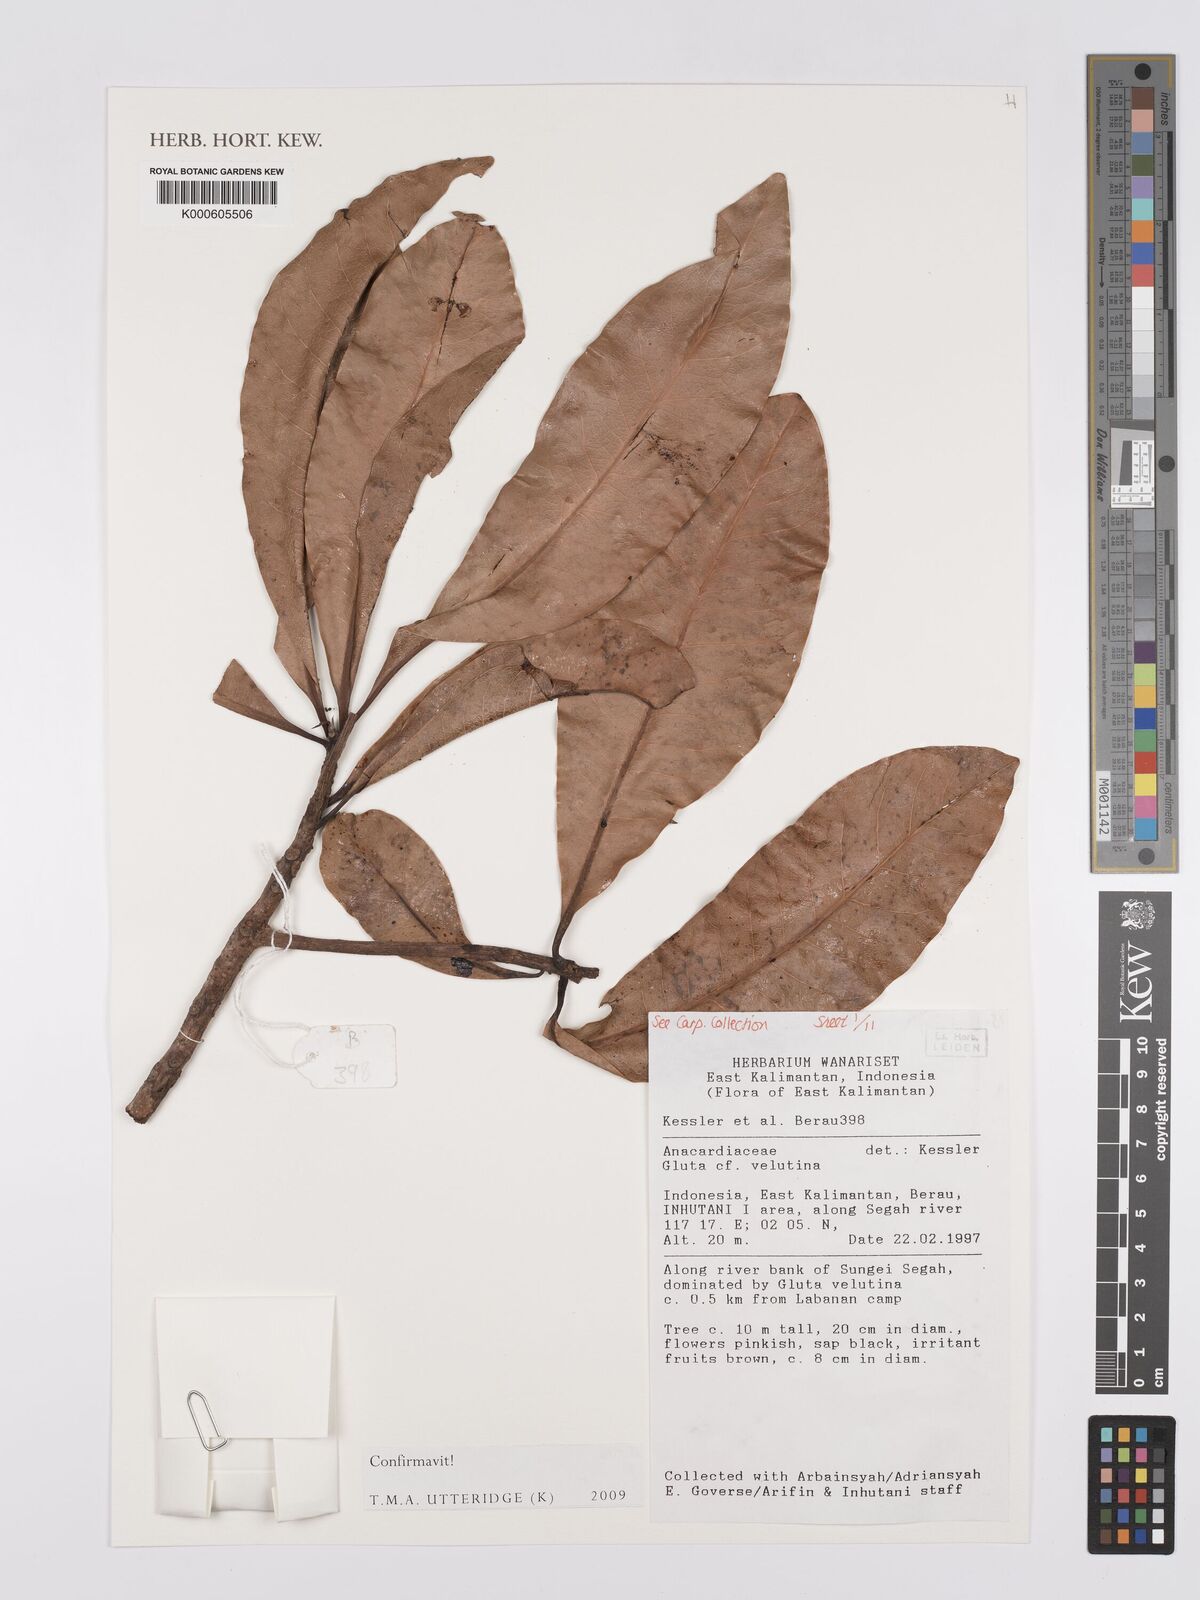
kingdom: Plantae
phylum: Tracheophyta
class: Magnoliopsida
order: Sapindales
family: Anacardiaceae
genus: Gluta
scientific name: Gluta velutina
